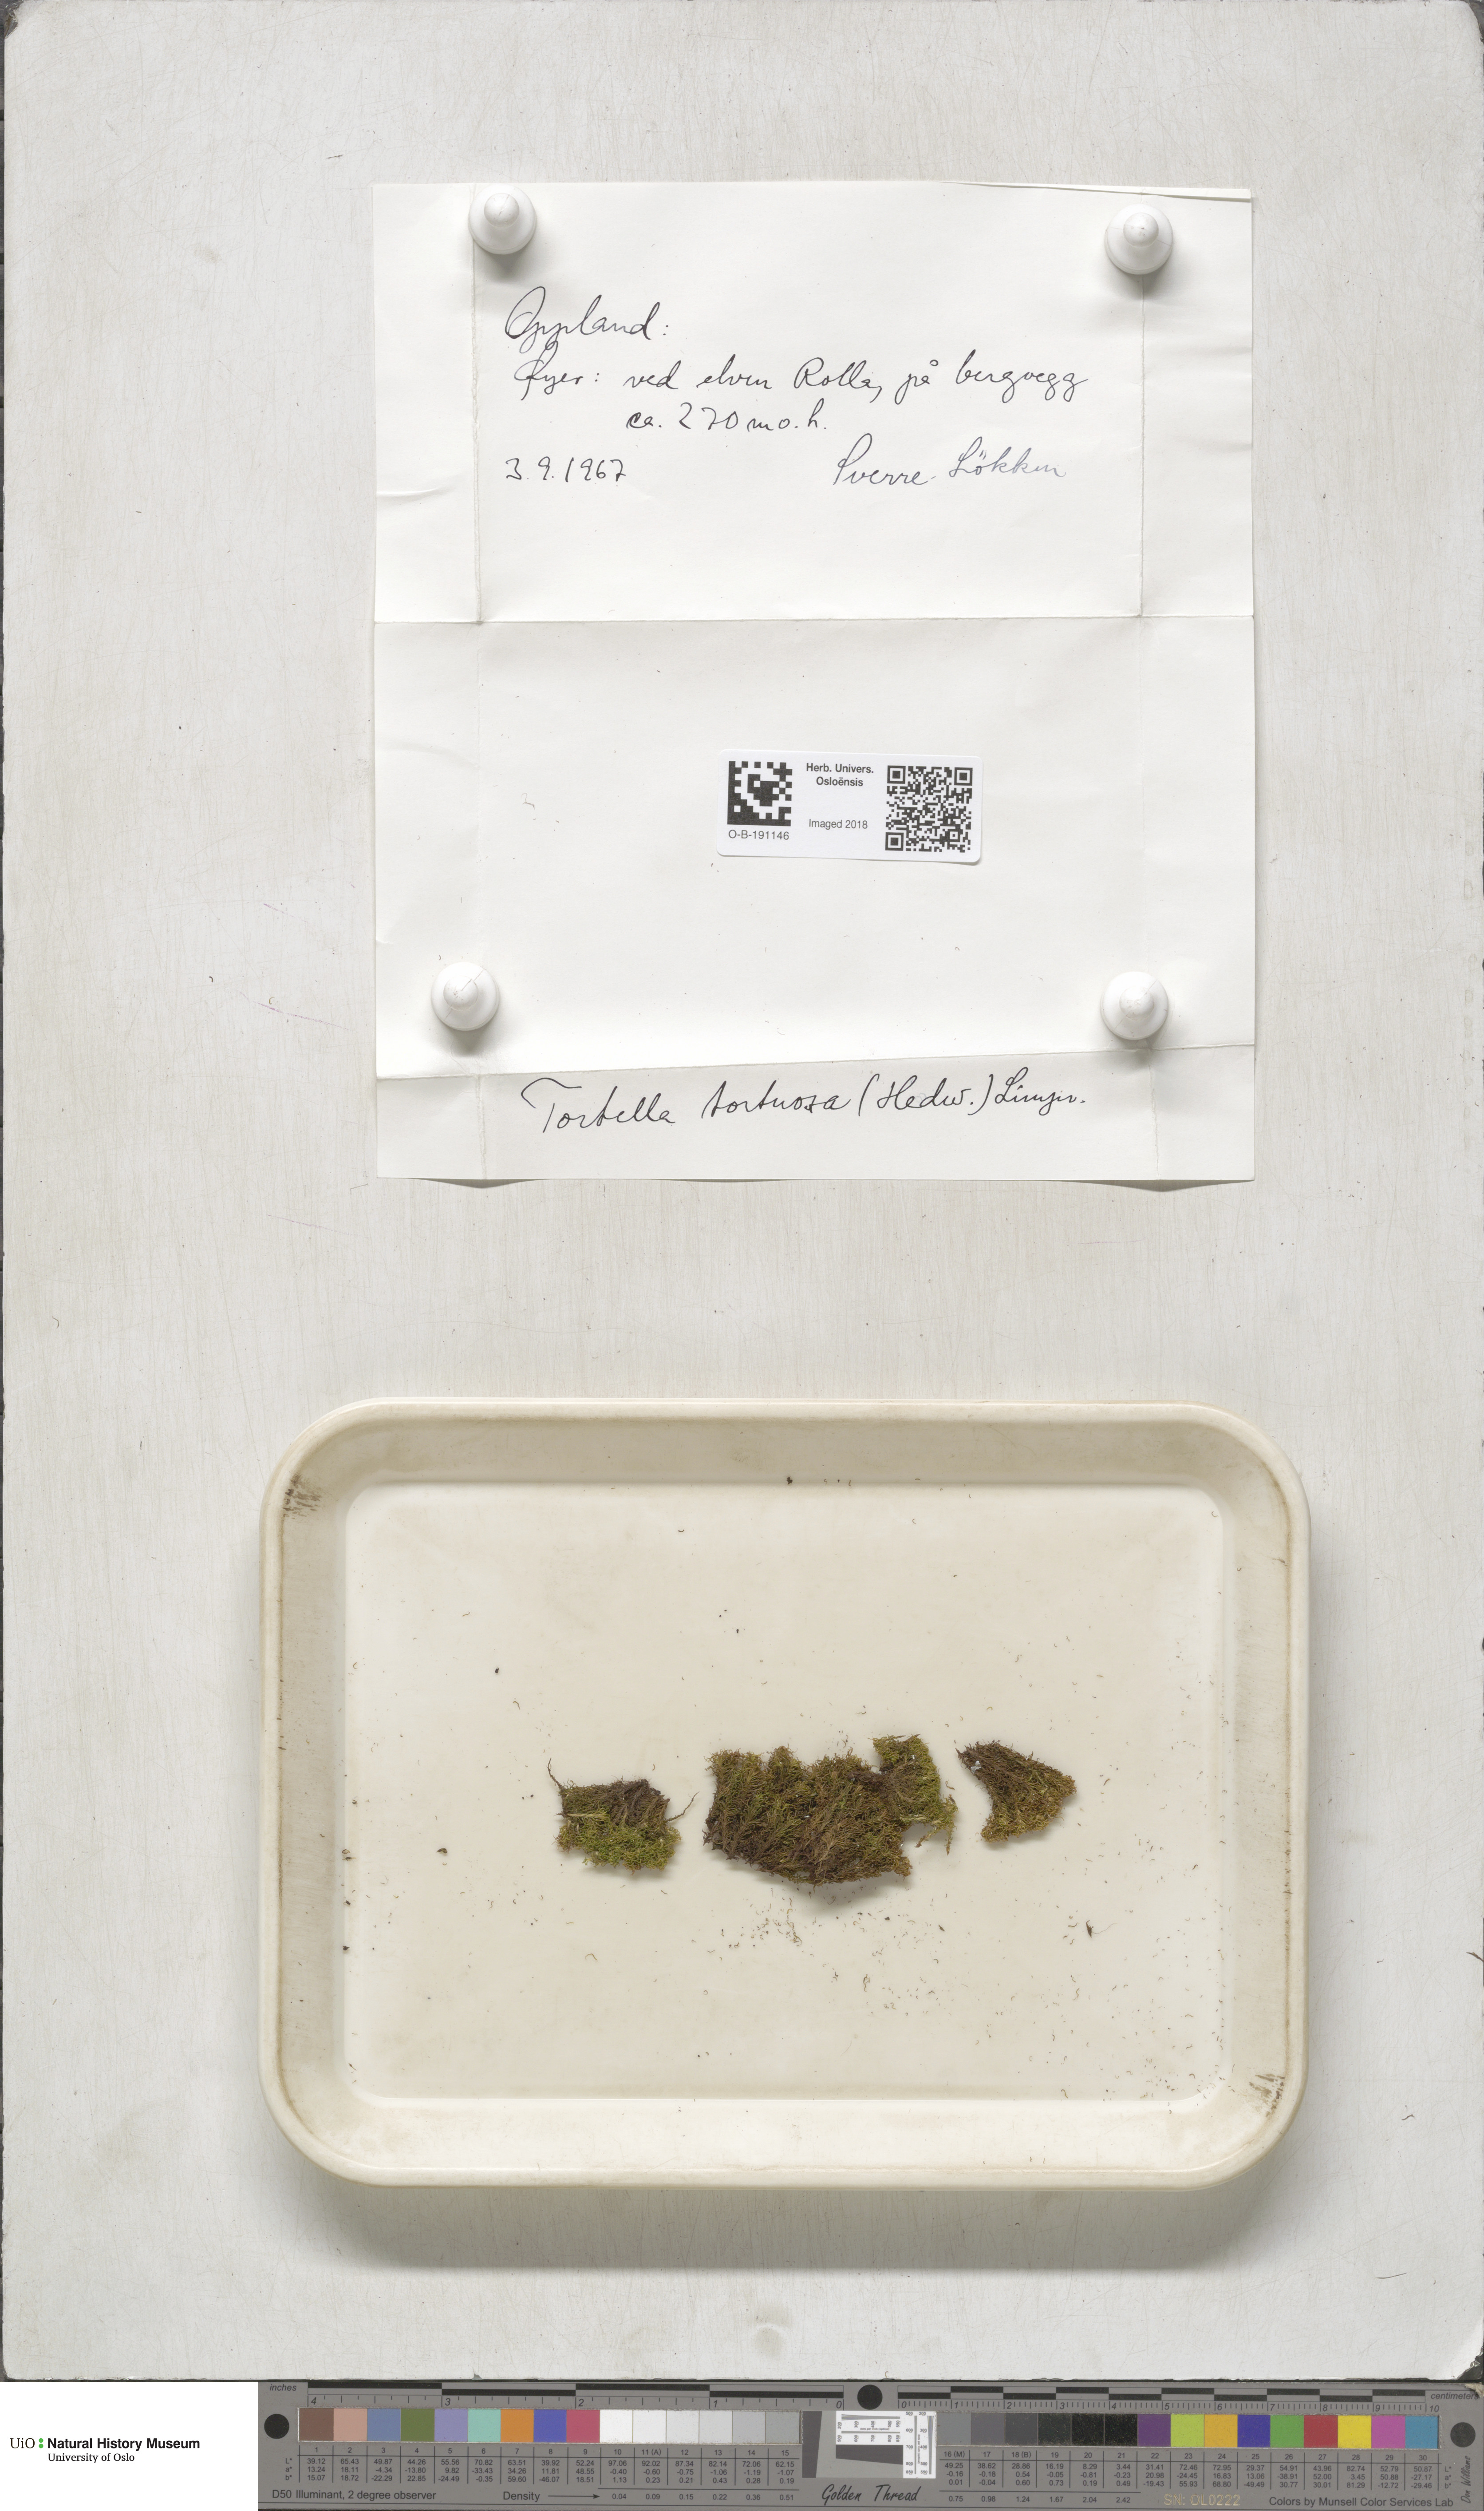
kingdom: Plantae
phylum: Bryophyta
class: Bryopsida
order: Pottiales
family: Pottiaceae
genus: Tortella
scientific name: Tortella tortuosa
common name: Frizzled crisp moss
